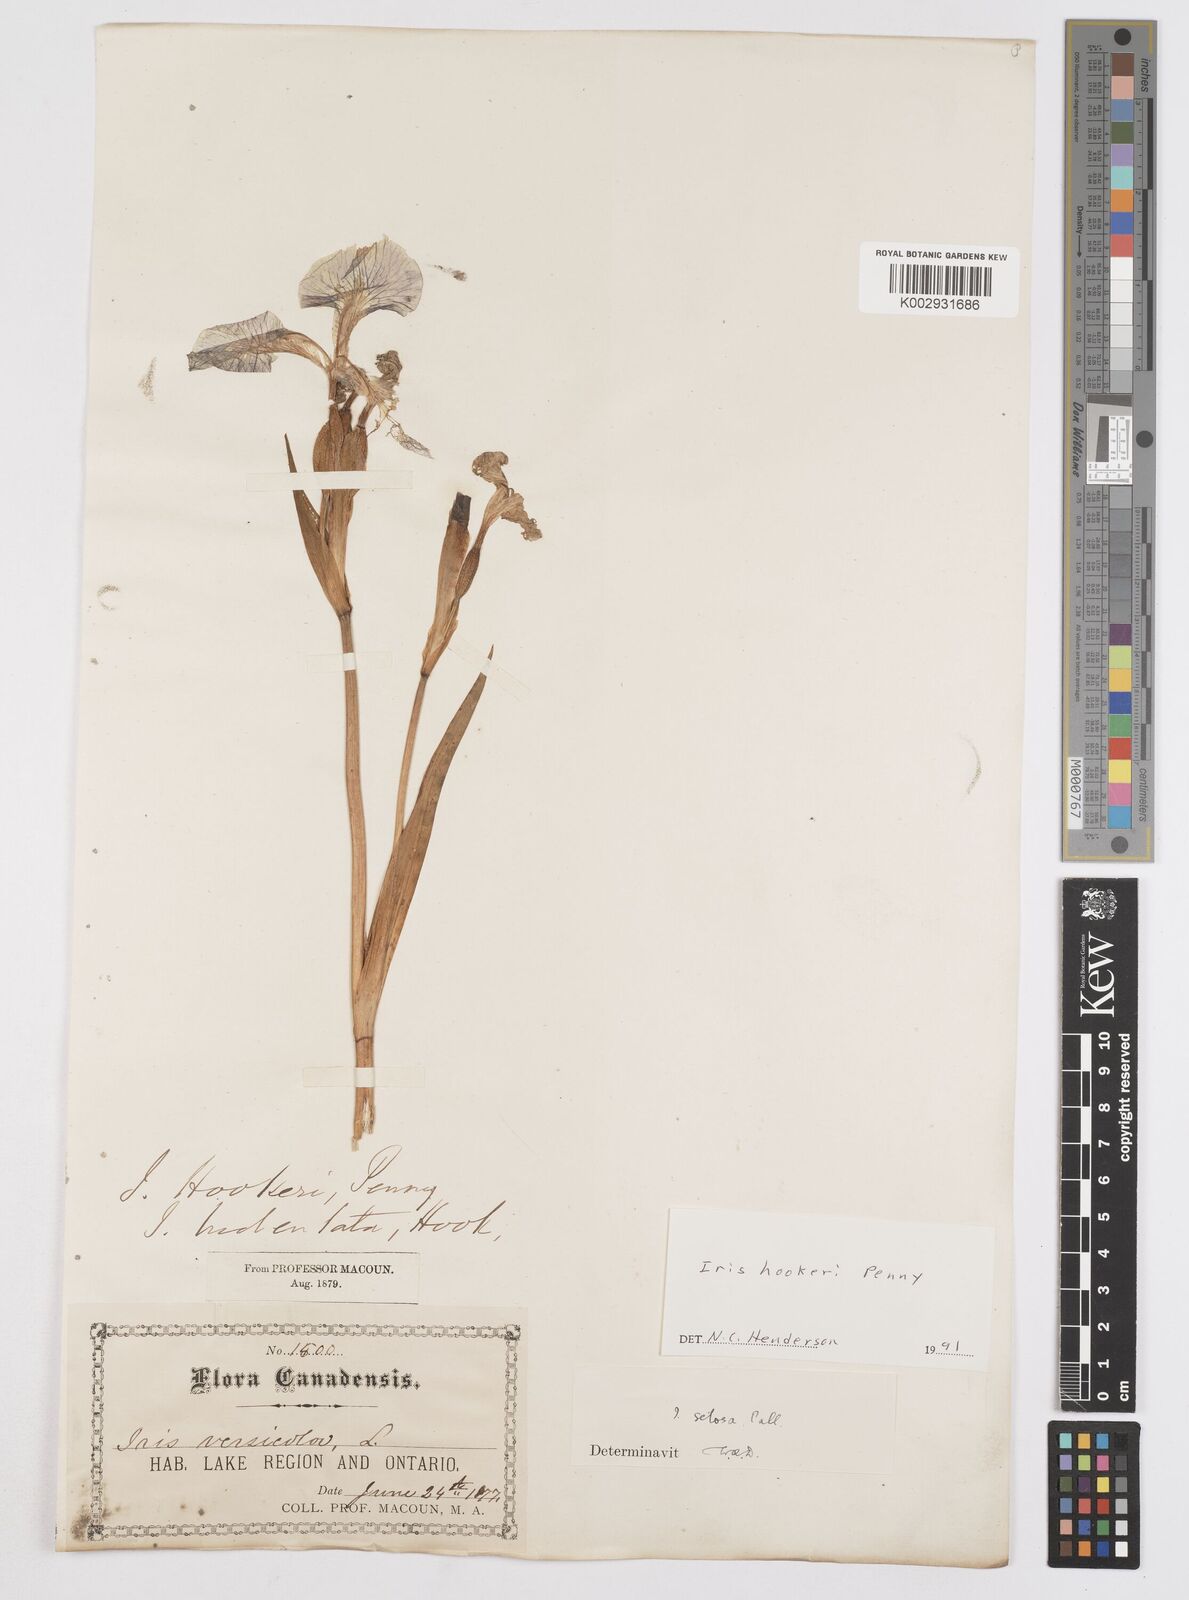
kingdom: Plantae
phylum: Tracheophyta
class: Liliopsida
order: Asparagales
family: Iridaceae
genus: Iris
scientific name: Iris setosa
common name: Arctic blue flag
